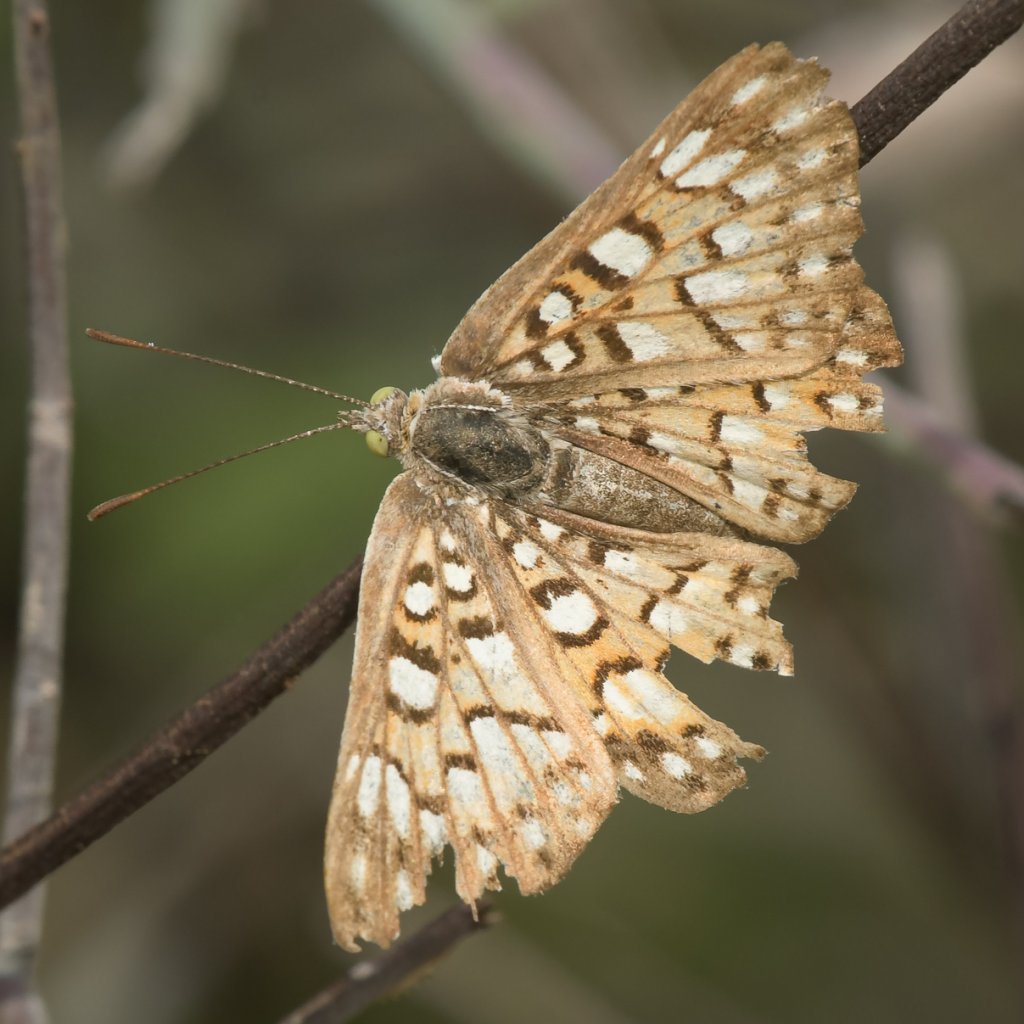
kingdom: Animalia
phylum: Arthropoda
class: Insecta
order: Lepidoptera
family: Riodinidae
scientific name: Riodinidae
